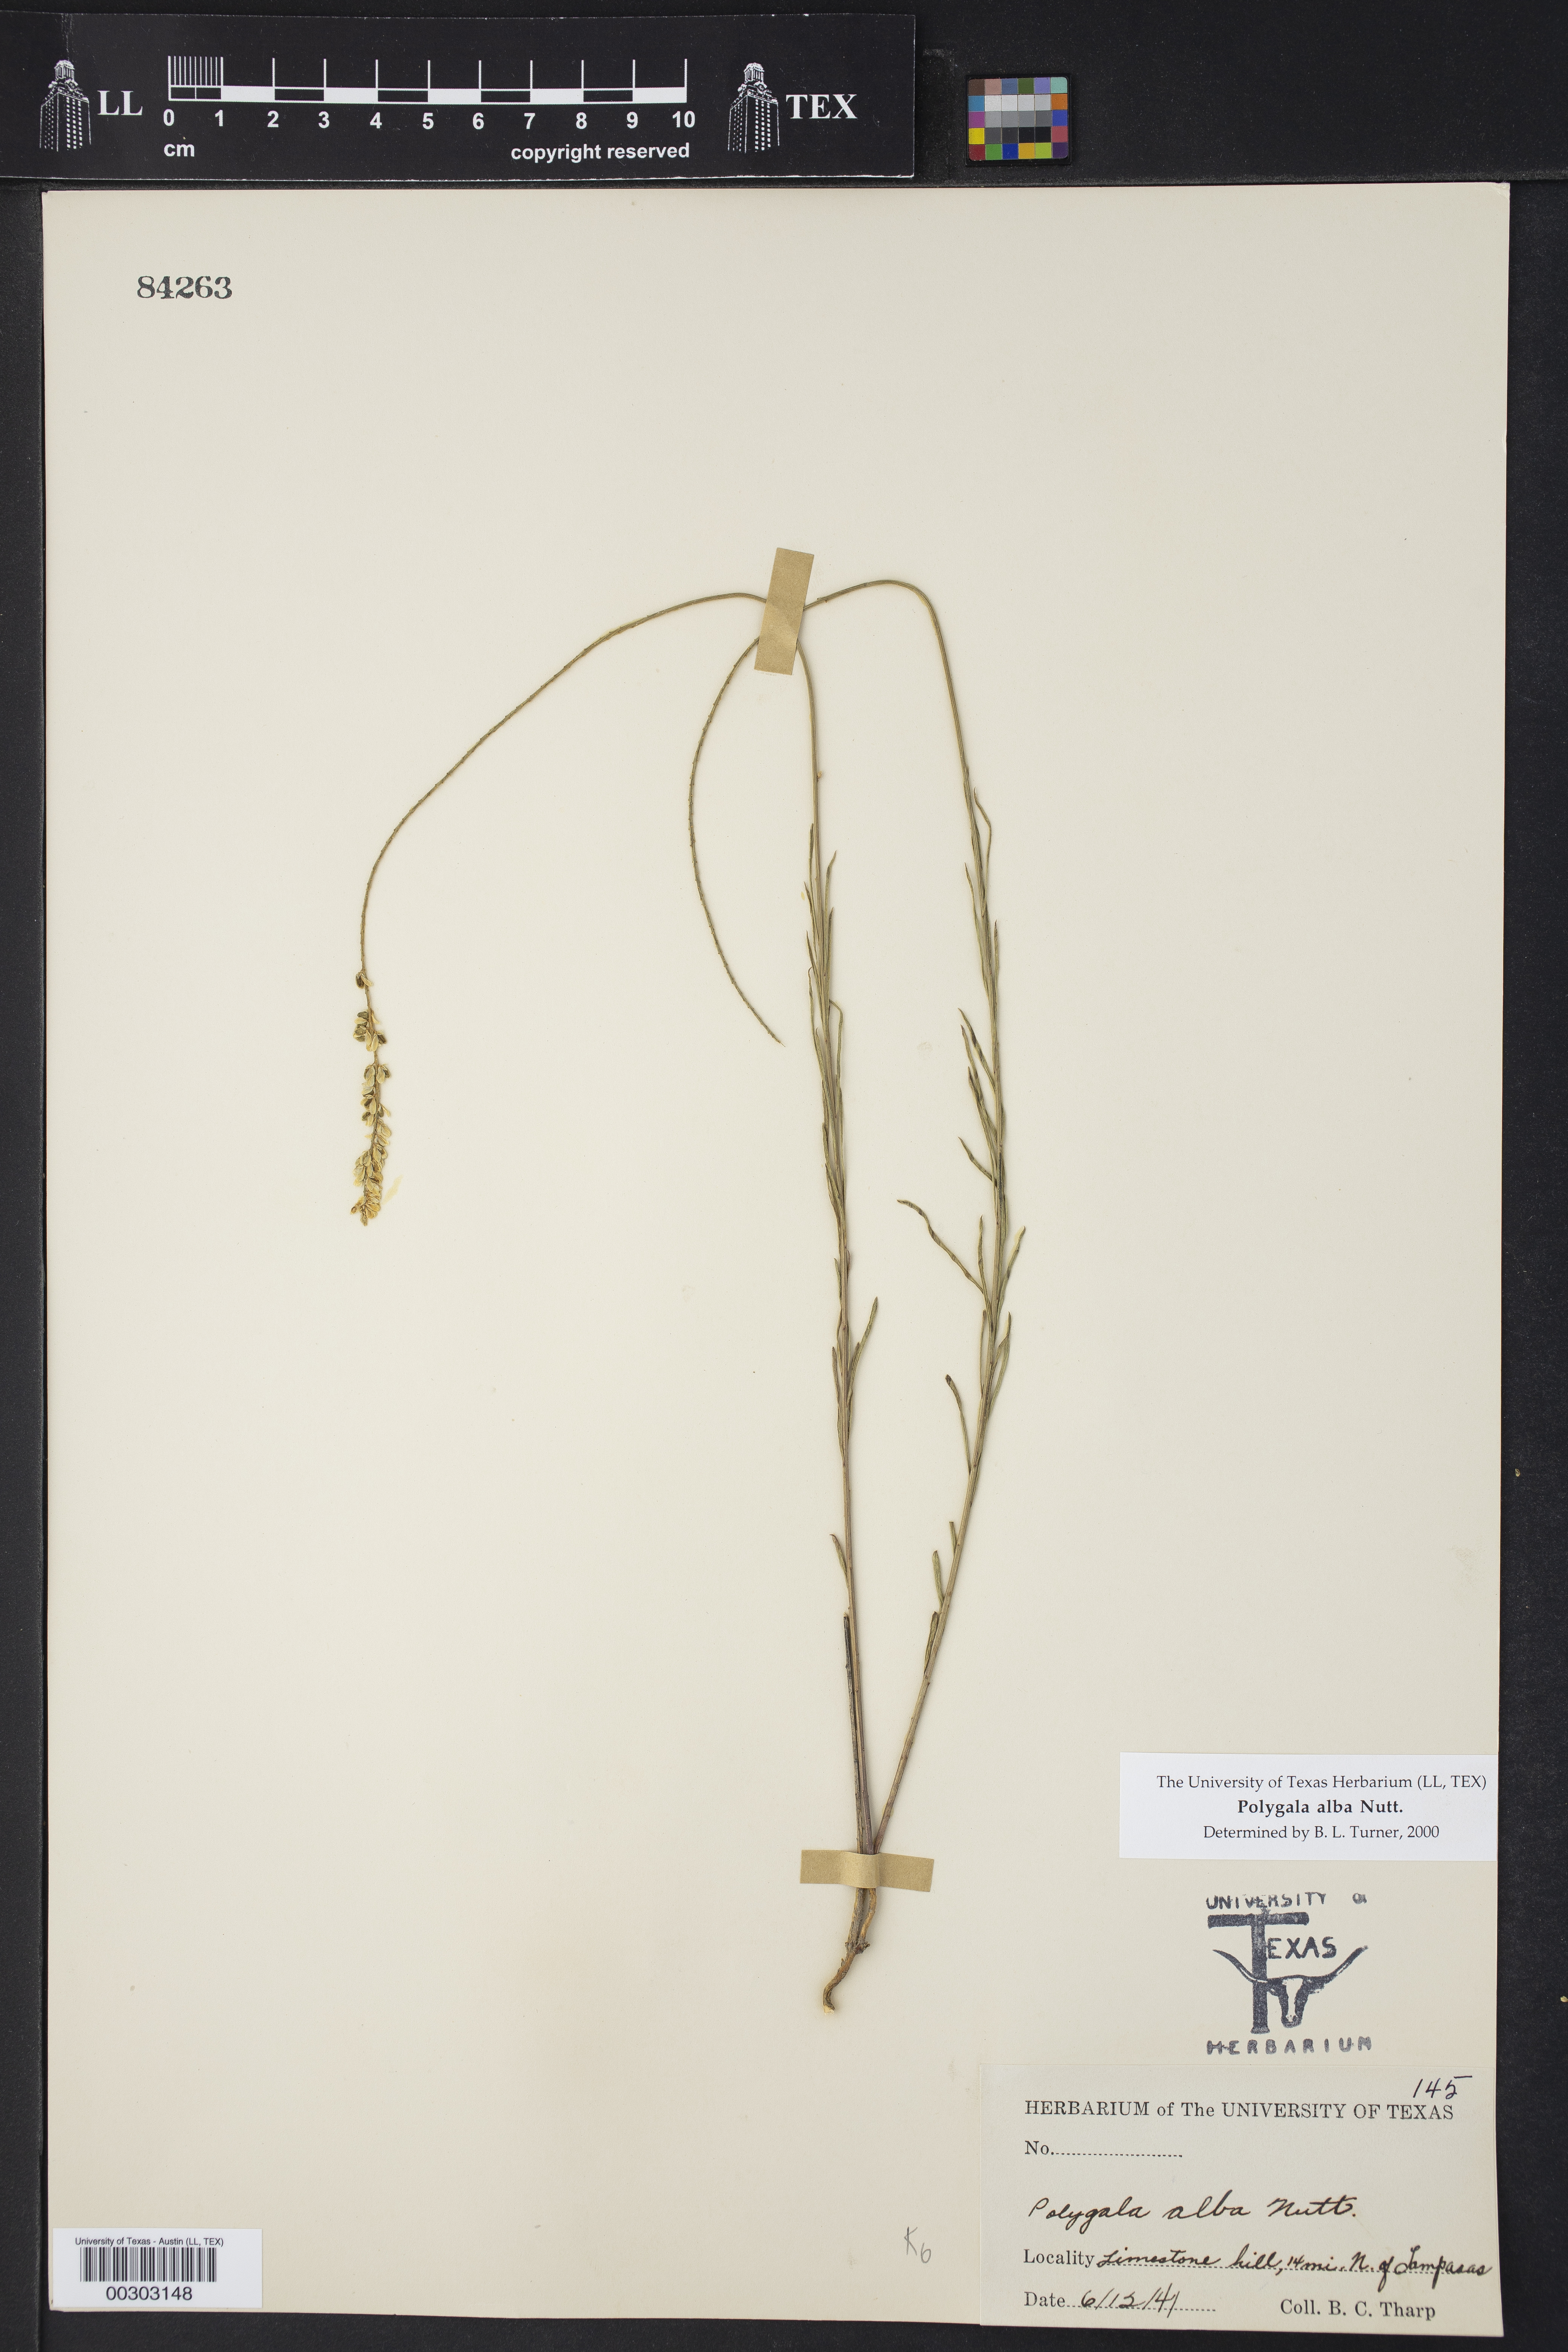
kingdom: Plantae
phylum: Tracheophyta
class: Magnoliopsida
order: Fabales
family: Polygalaceae
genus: Polygala
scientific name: Polygala alba
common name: White milkwort
